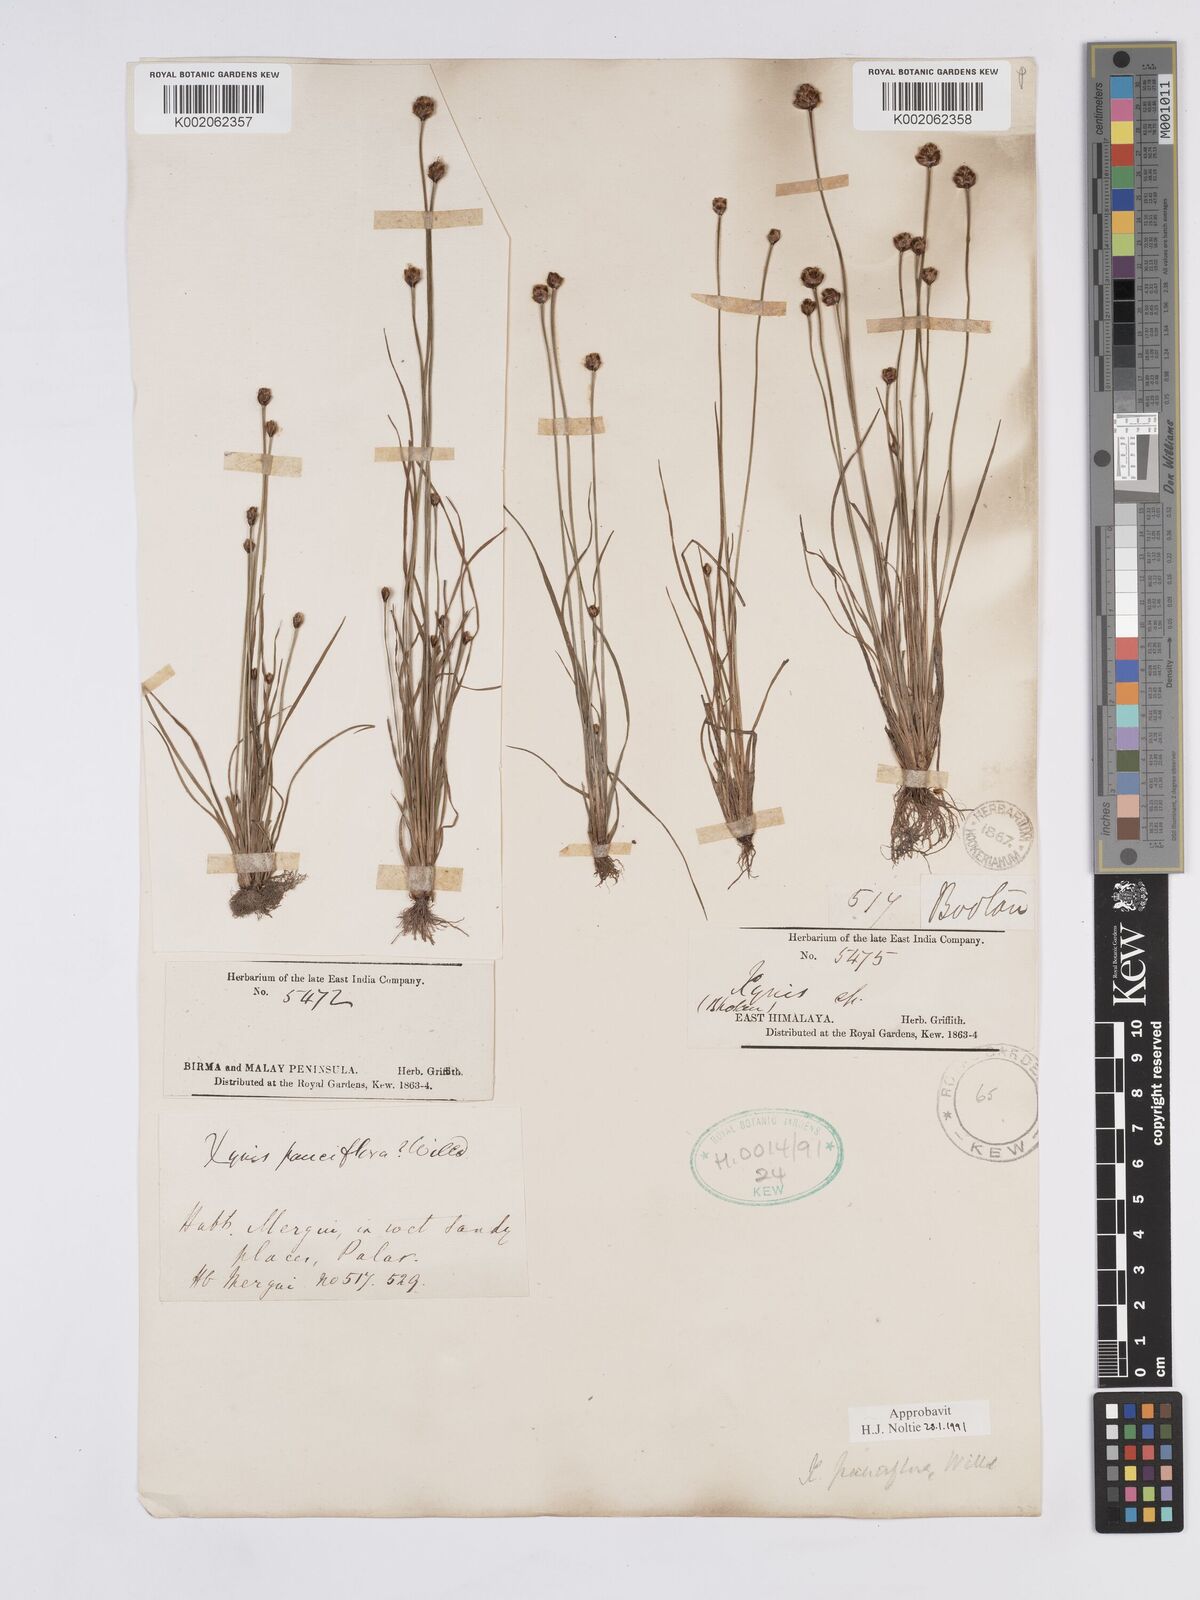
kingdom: Plantae
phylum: Tracheophyta
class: Liliopsida
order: Poales
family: Xyridaceae
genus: Xyris
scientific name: Xyris pauciflora
